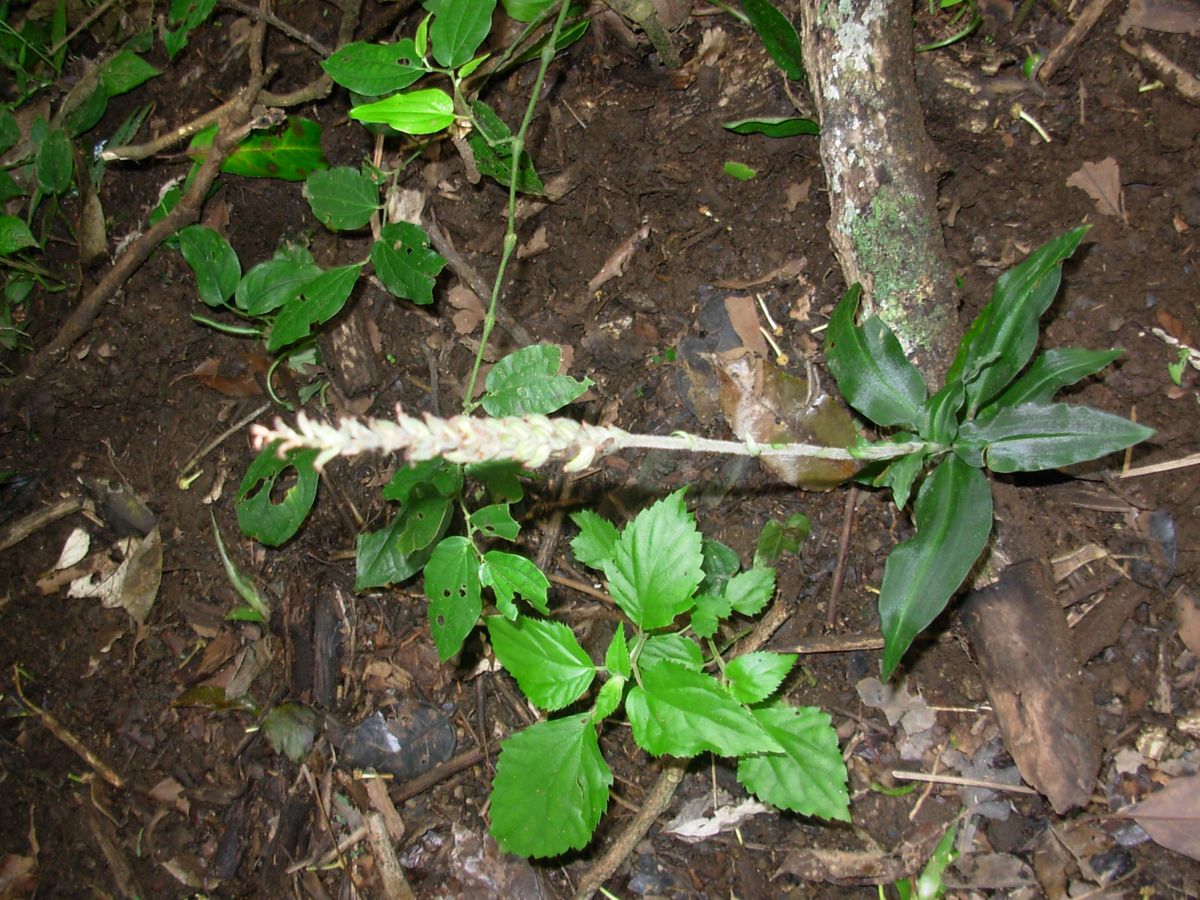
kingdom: Plantae
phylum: Tracheophyta
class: Liliopsida
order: Asparagales
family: Orchidaceae
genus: Goodyera
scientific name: Goodyera striata
